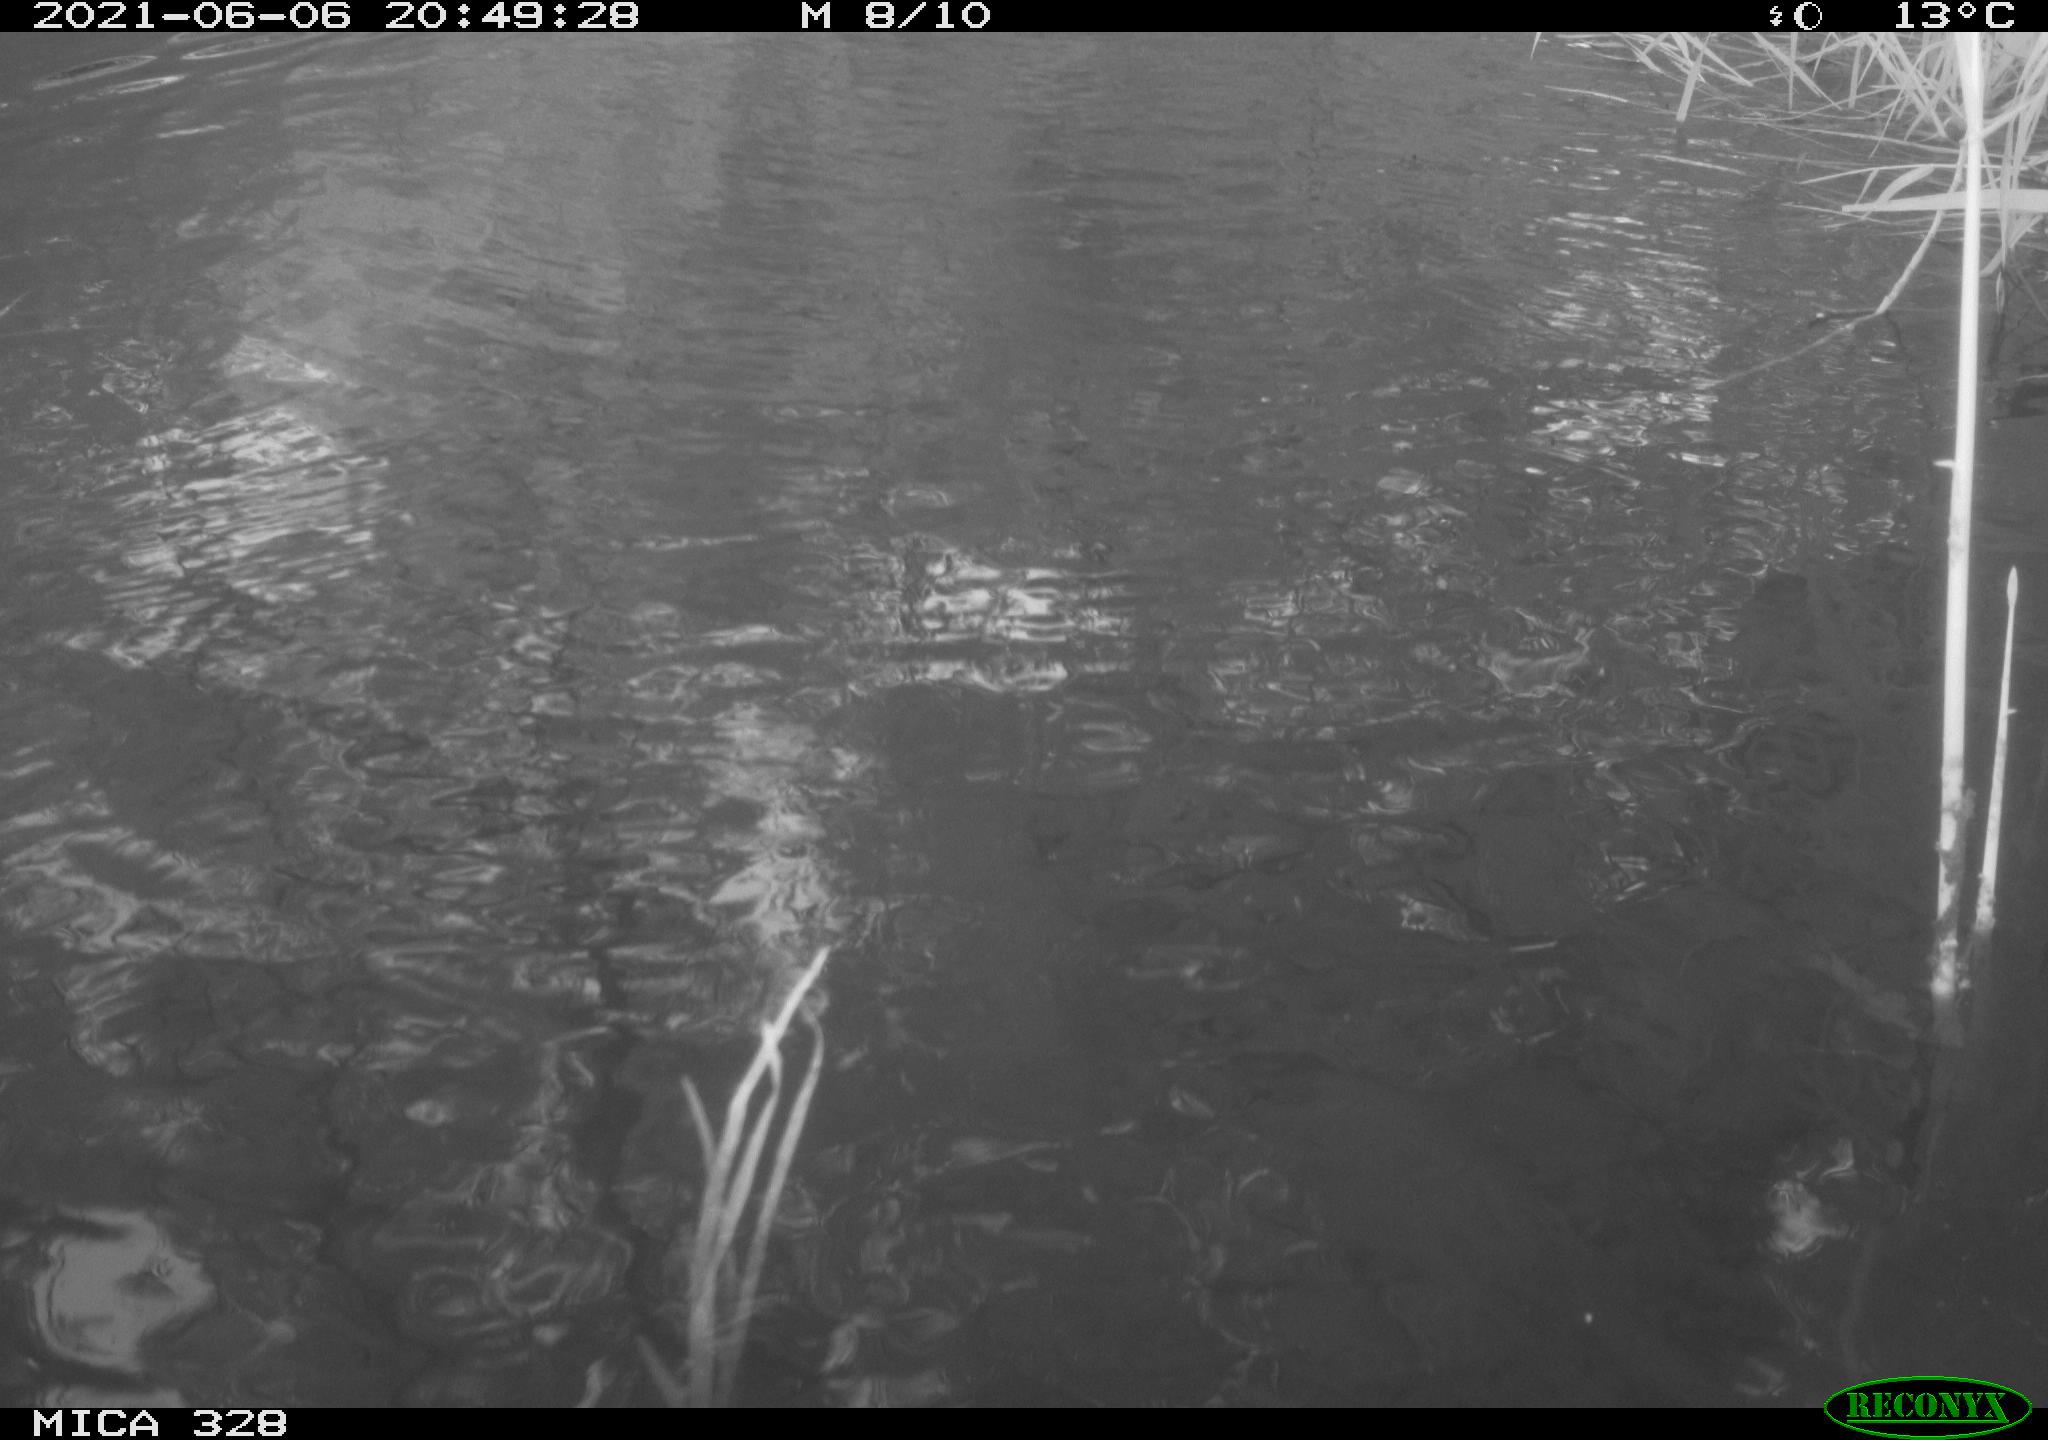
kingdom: Animalia
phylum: Chordata
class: Mammalia
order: Rodentia
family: Cricetidae
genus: Ondatra
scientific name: Ondatra zibethicus
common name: Muskrat
